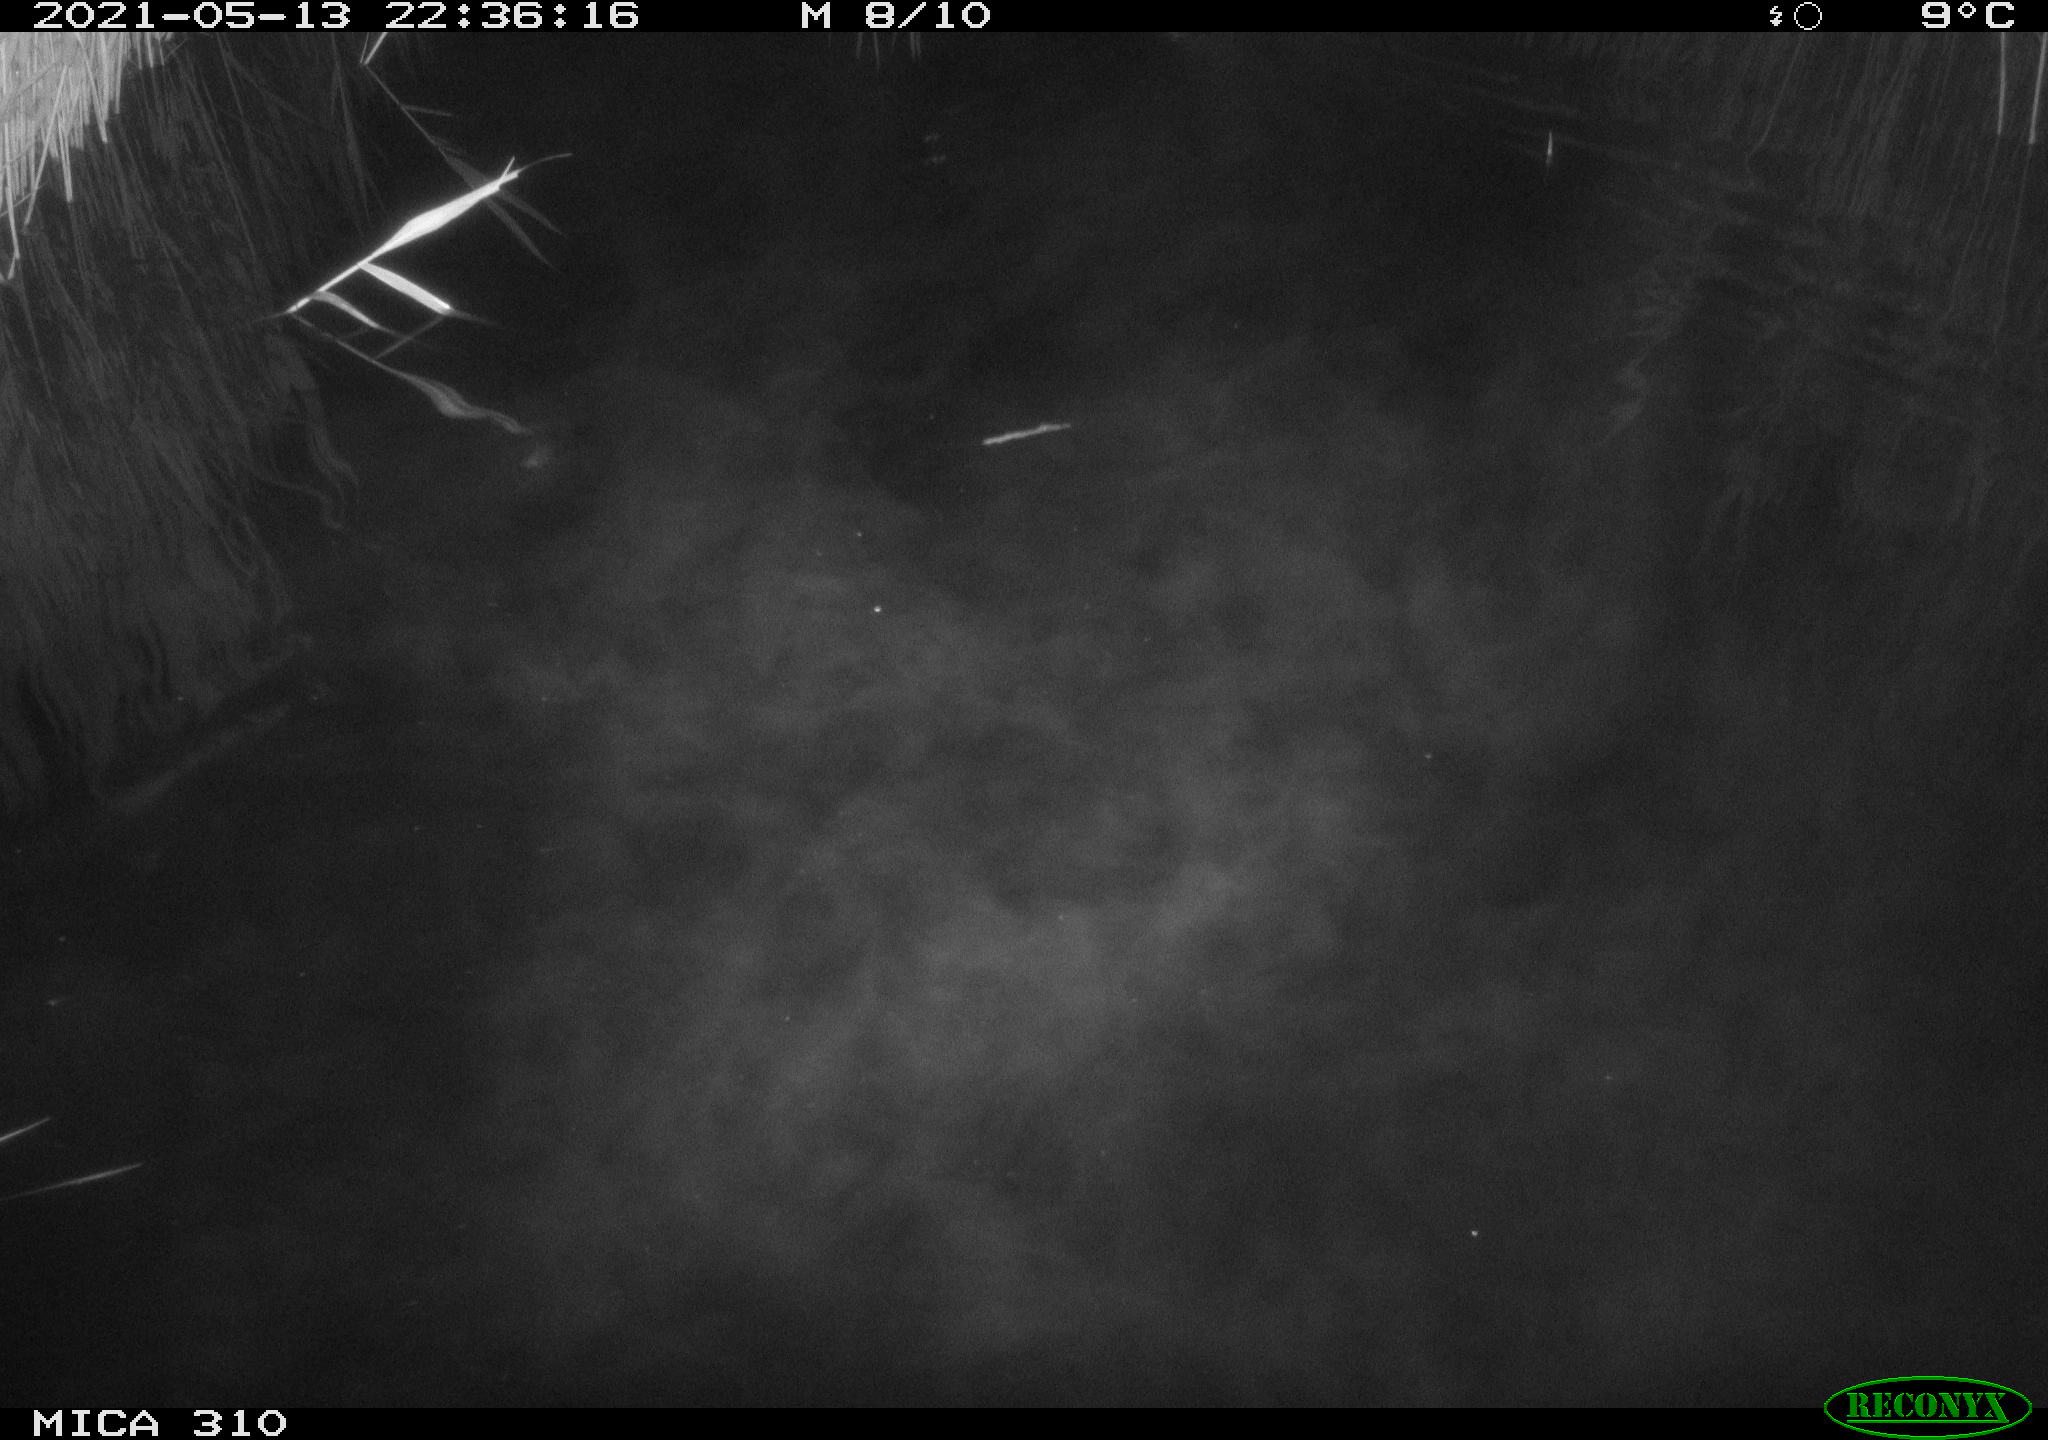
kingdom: Animalia
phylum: Chordata
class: Aves
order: Anseriformes
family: Anatidae
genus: Anas
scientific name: Anas platyrhynchos
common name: Mallard
